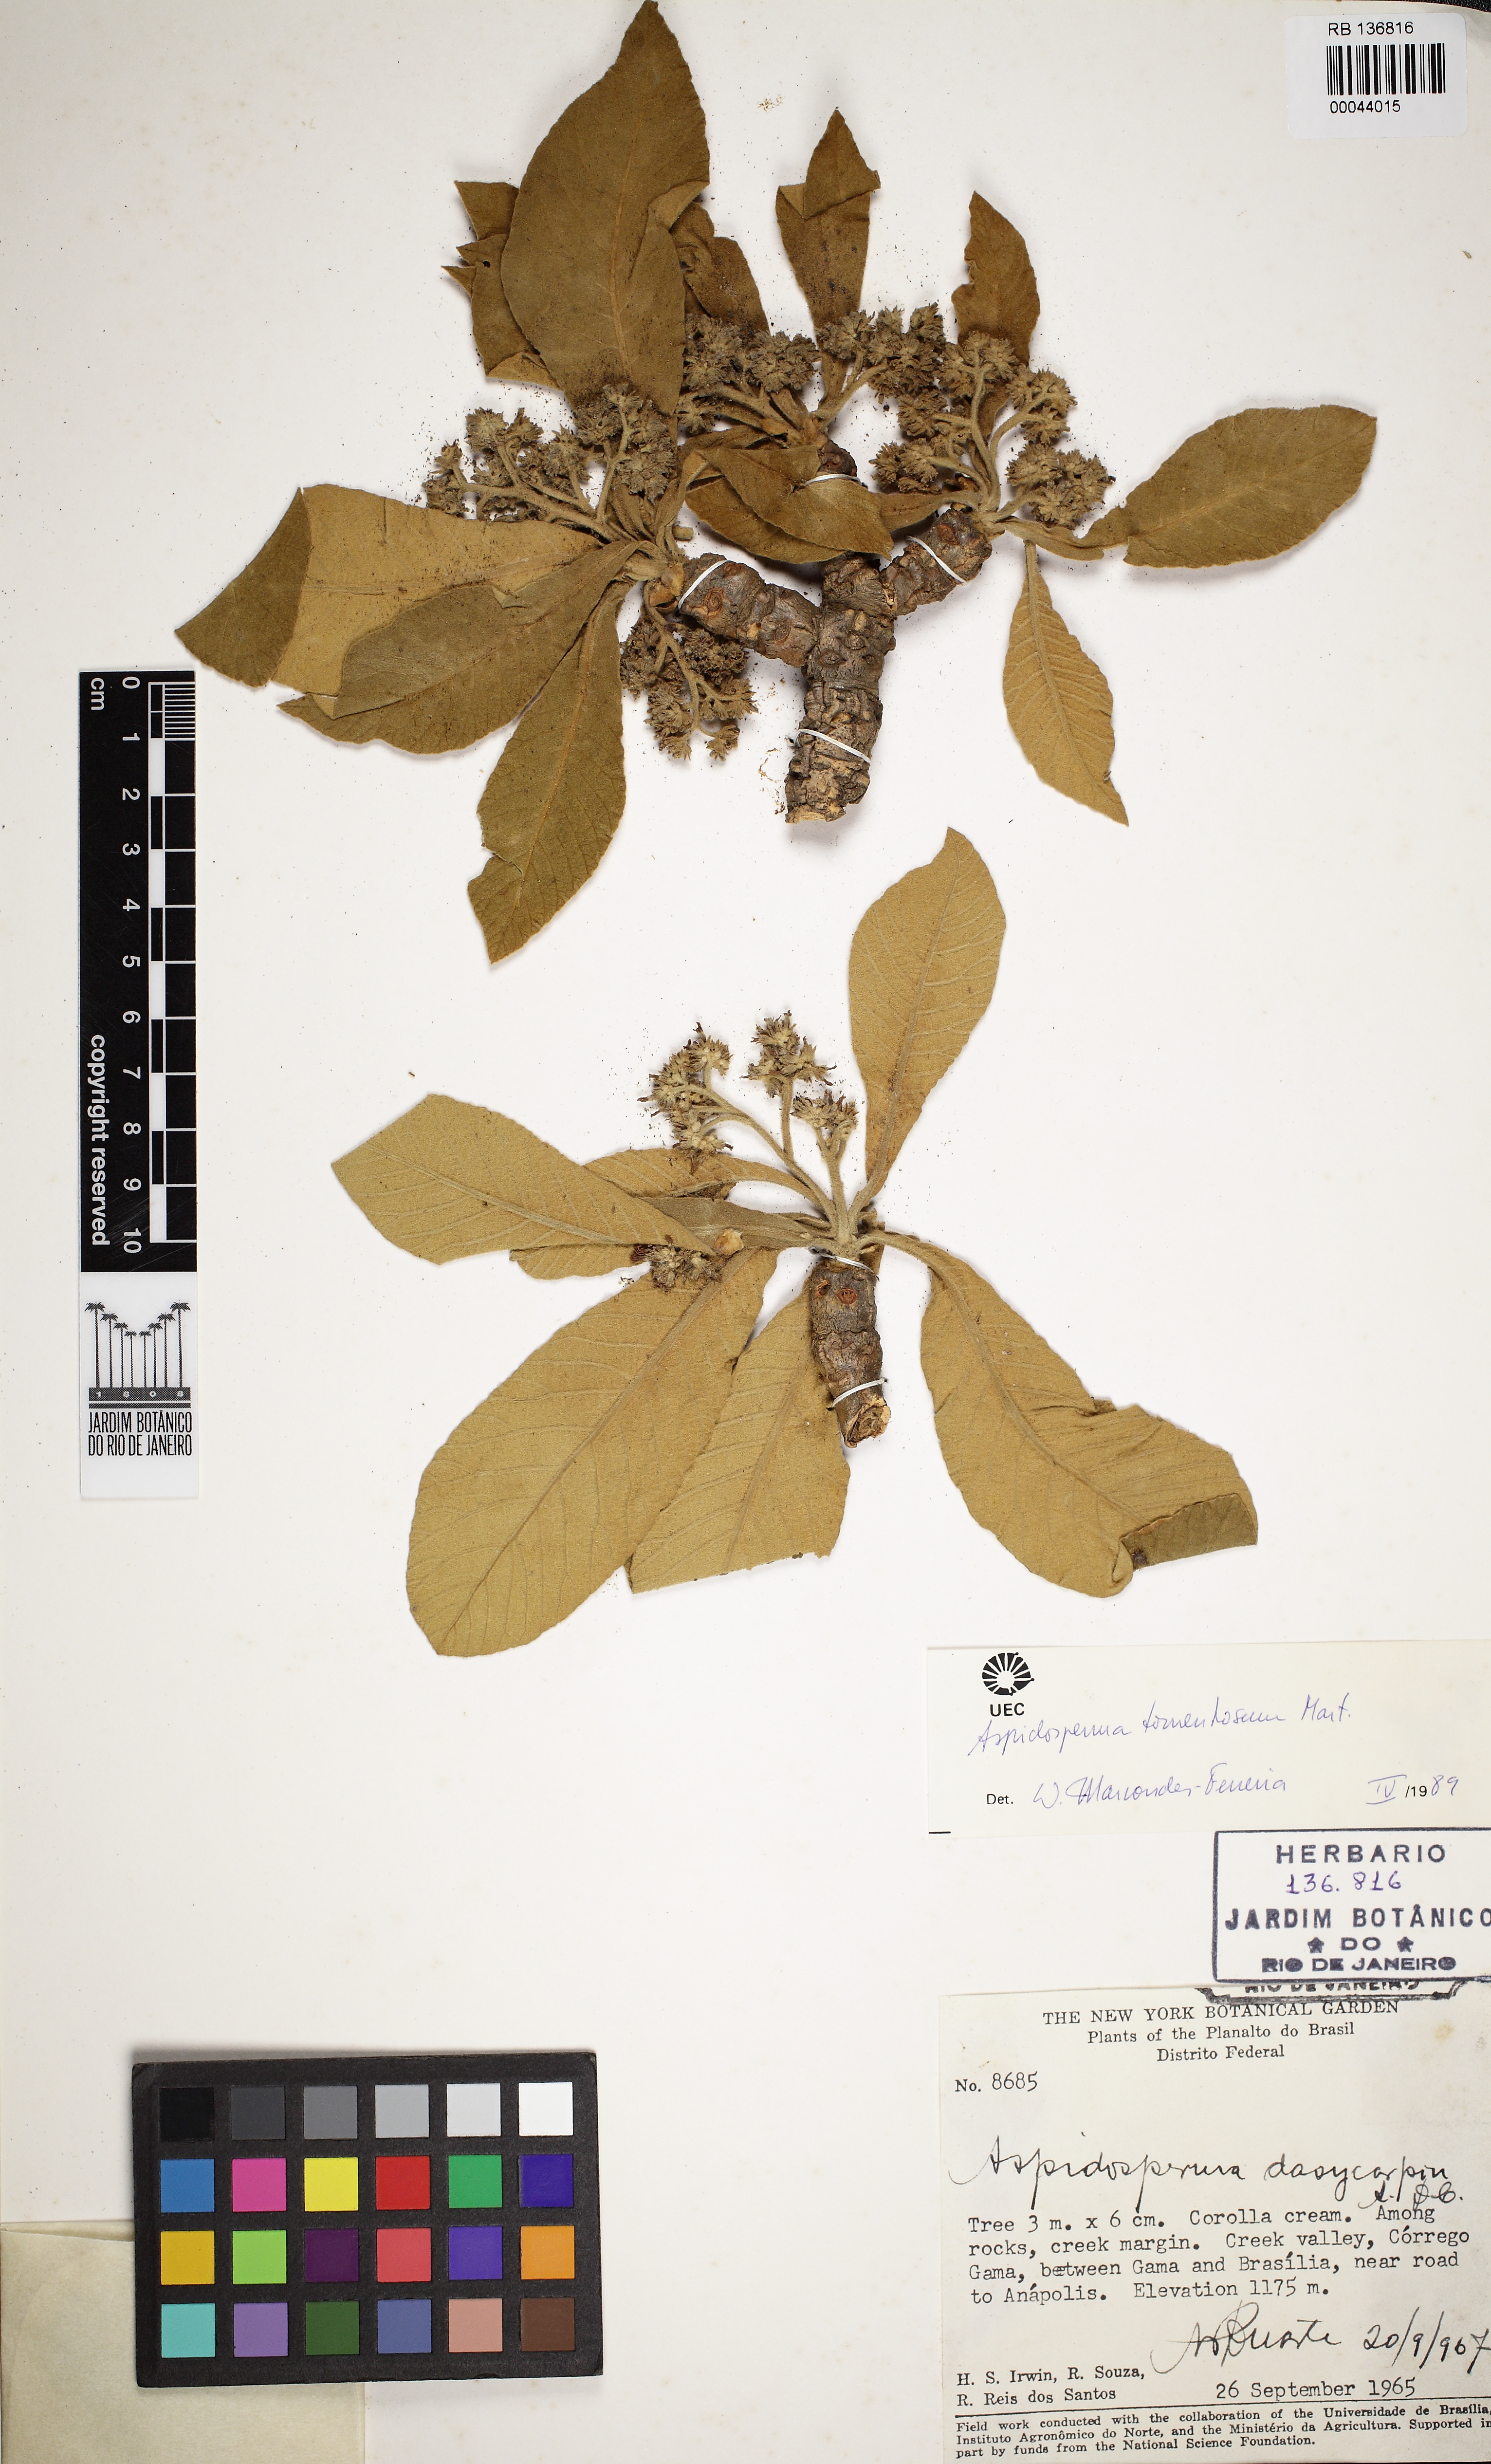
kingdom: Plantae
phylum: Tracheophyta
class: Magnoliopsida
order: Gentianales
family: Apocynaceae
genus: Aspidosperma
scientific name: Aspidosperma tomentosum
